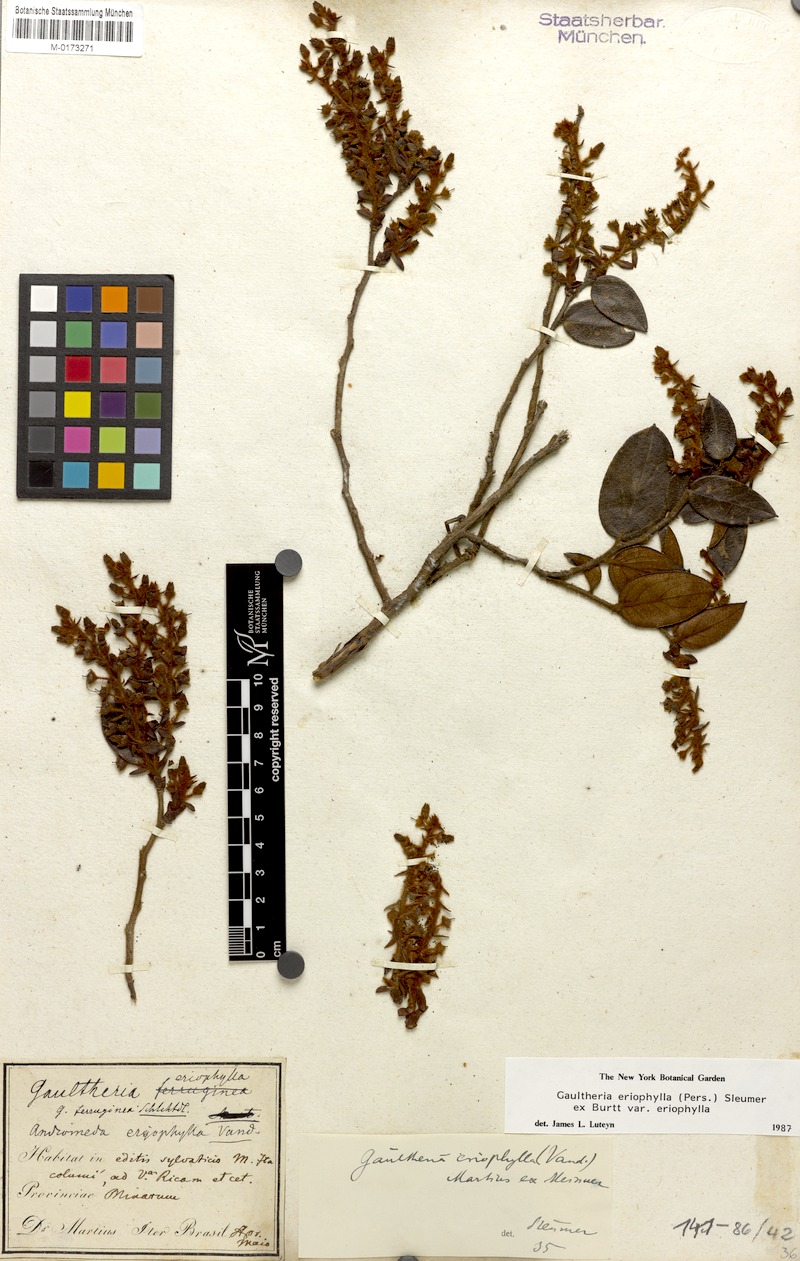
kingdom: Plantae
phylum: Tracheophyta
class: Magnoliopsida
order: Ericales
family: Ericaceae
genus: Gaultheria
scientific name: Gaultheria eriophylla
